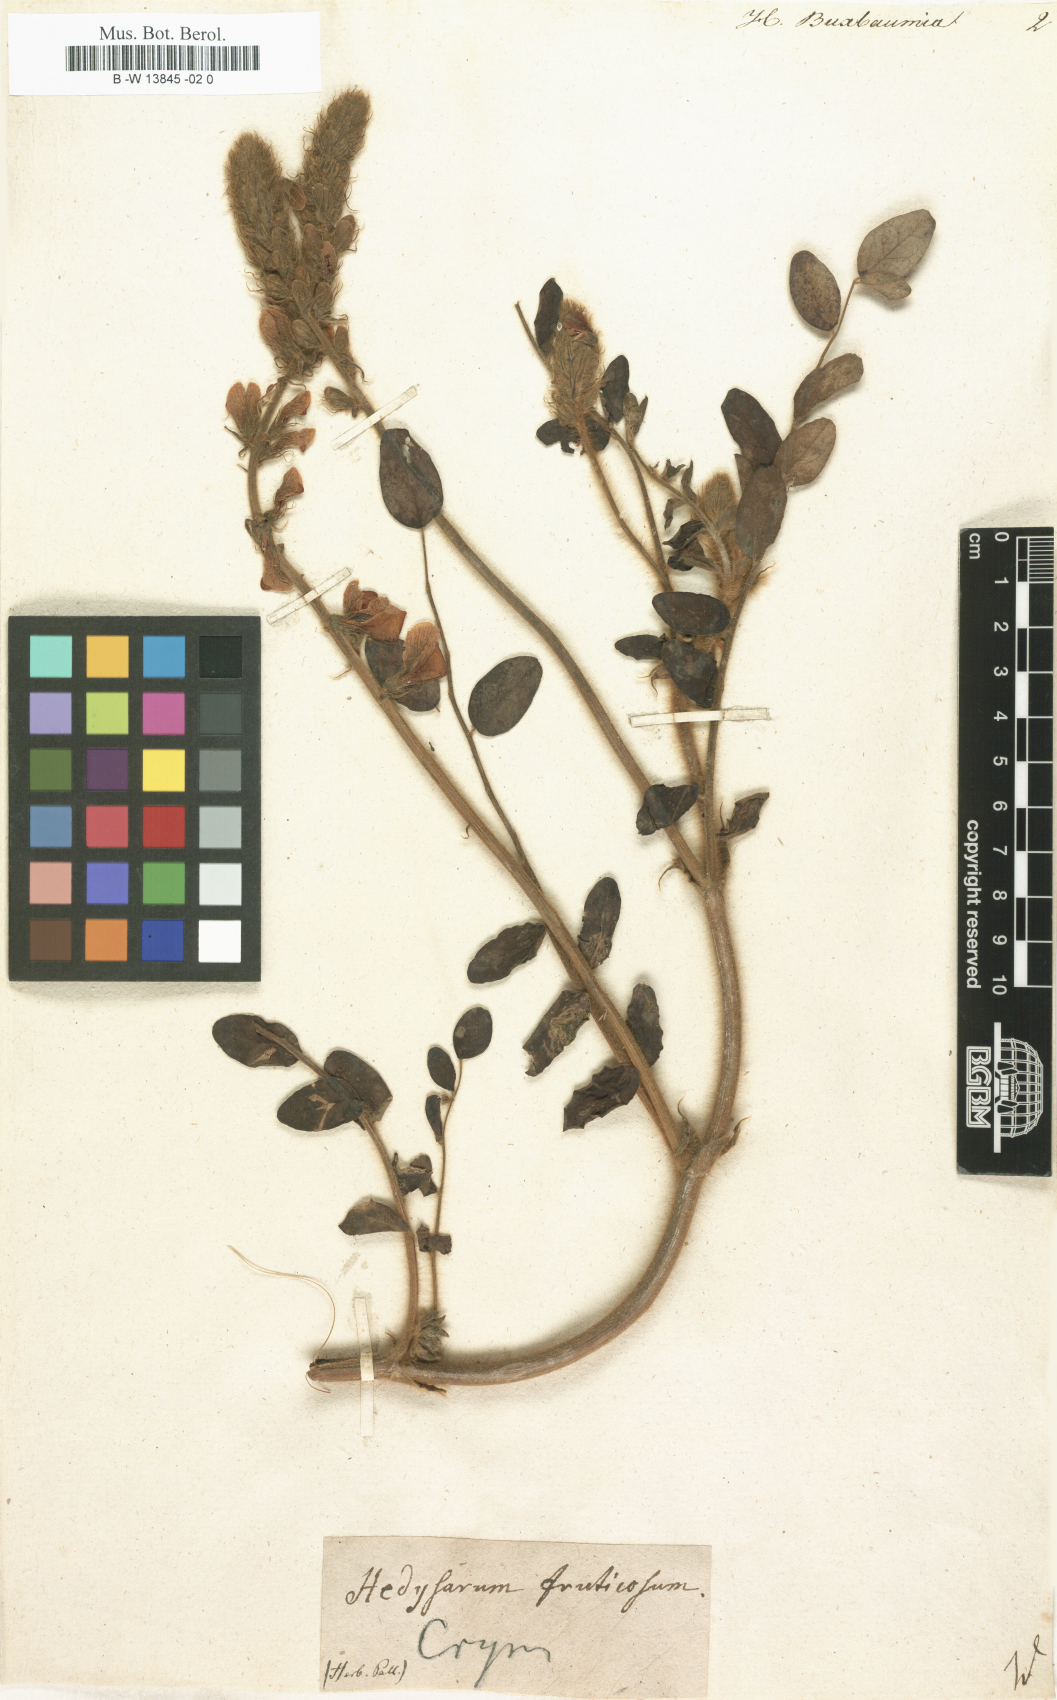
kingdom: Plantae
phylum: Tracheophyta
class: Magnoliopsida
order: Fabales
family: Fabaceae
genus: Onobrychis
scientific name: Onobrychis radiata
